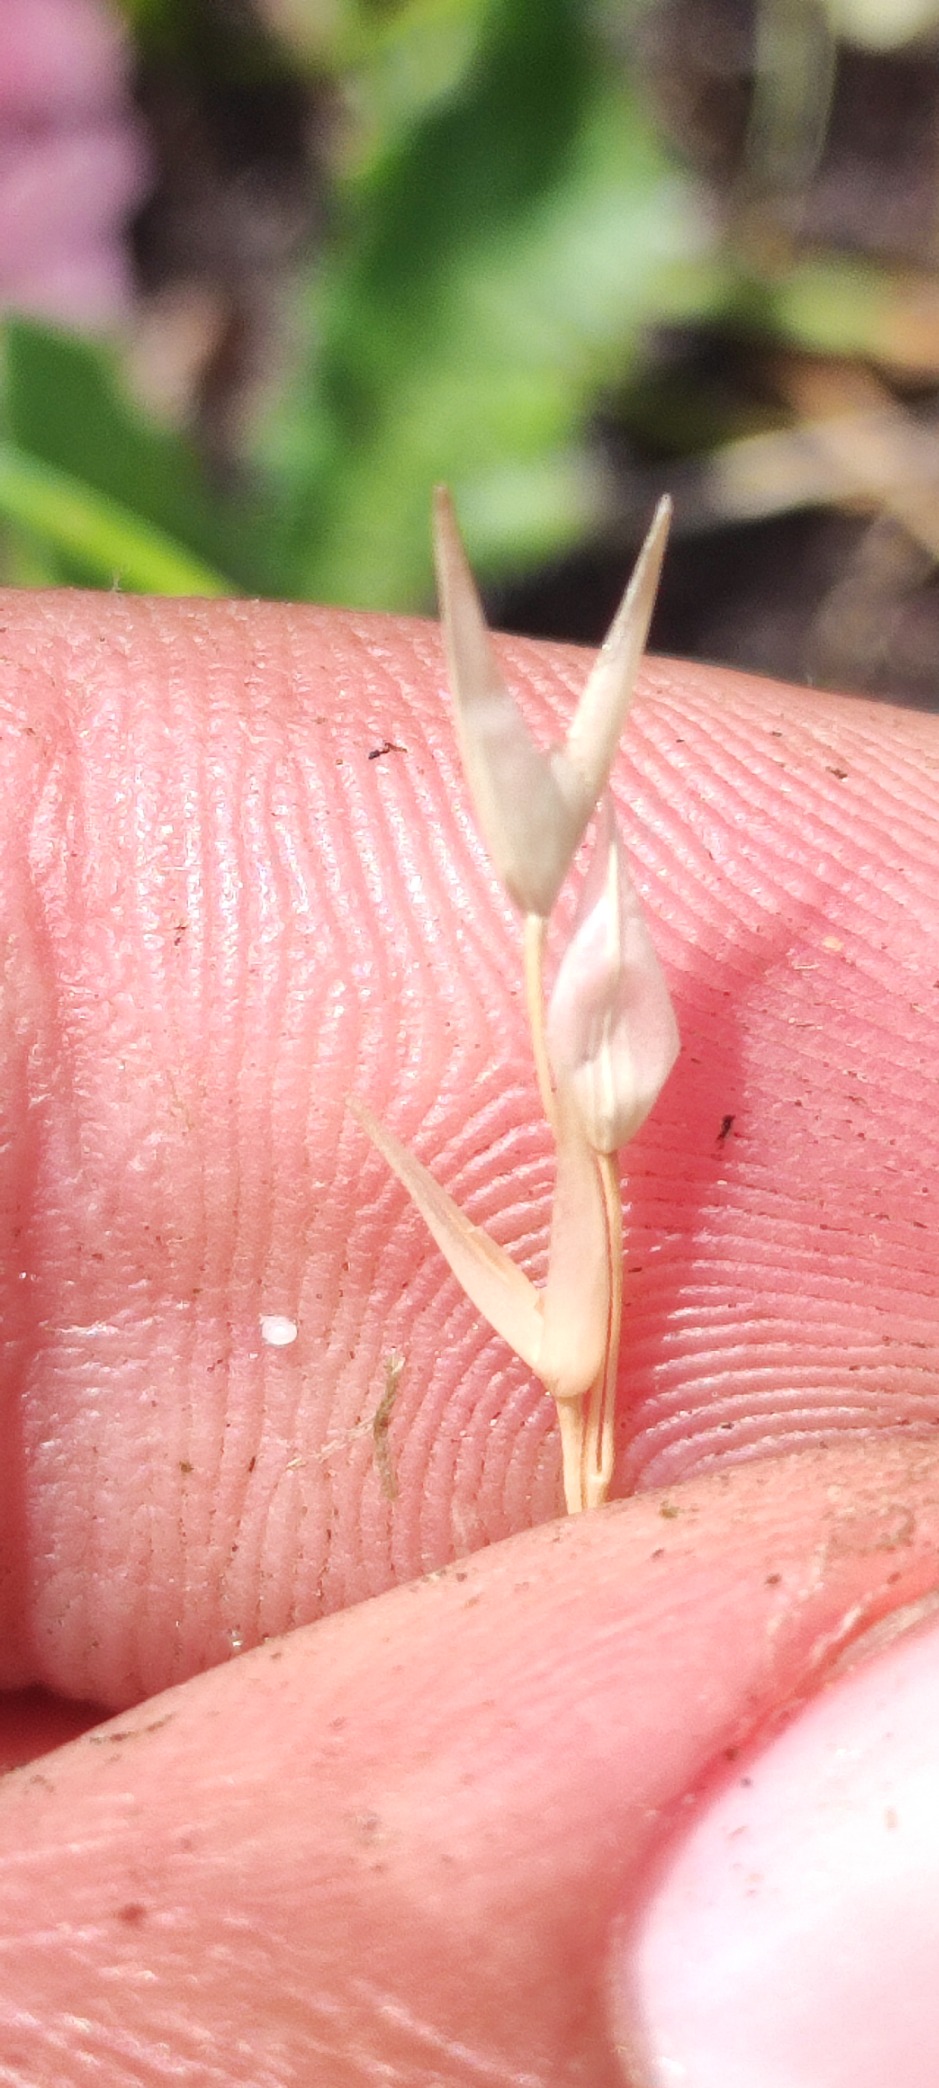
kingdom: Plantae
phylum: Tracheophyta
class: Liliopsida
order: Poales
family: Poaceae
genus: Danthonia
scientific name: Danthonia decumbens
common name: Tandbælg
